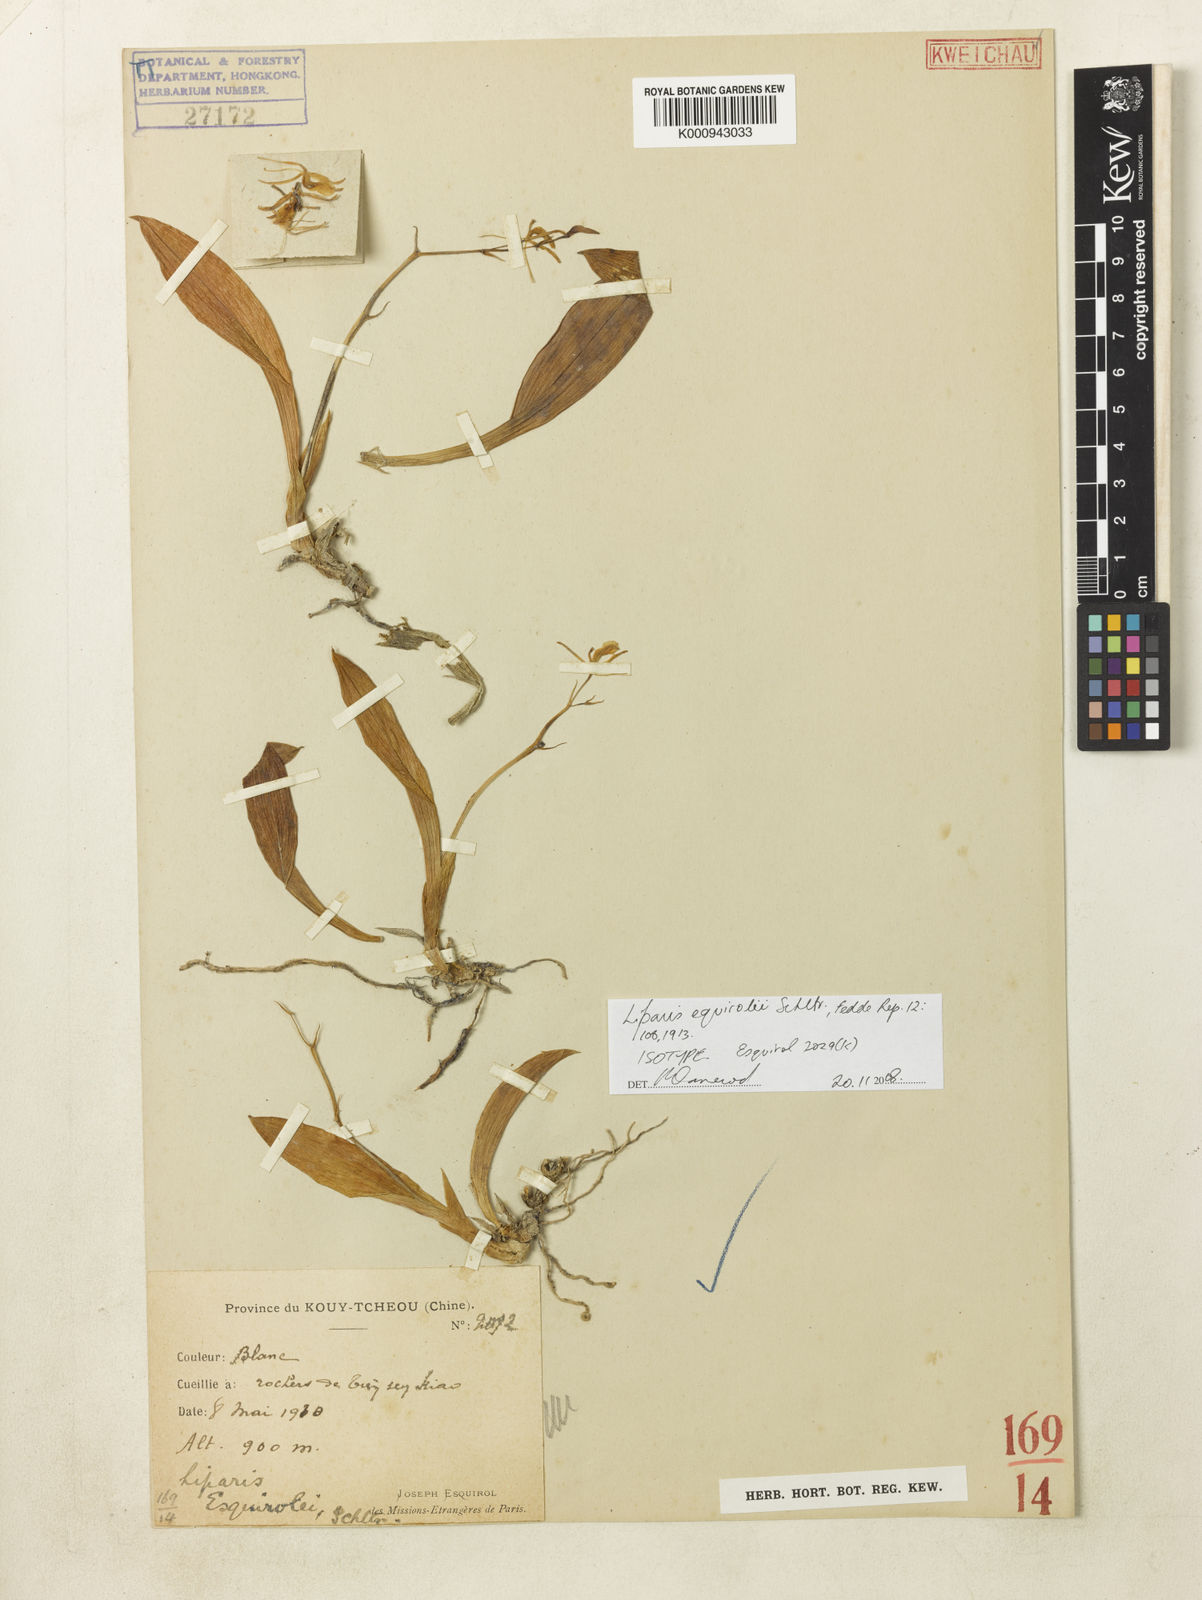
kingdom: Plantae
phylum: Tracheophyta
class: Liliopsida
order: Asparagales
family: Orchidaceae
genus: Liparis
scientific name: Liparis esquirolii
